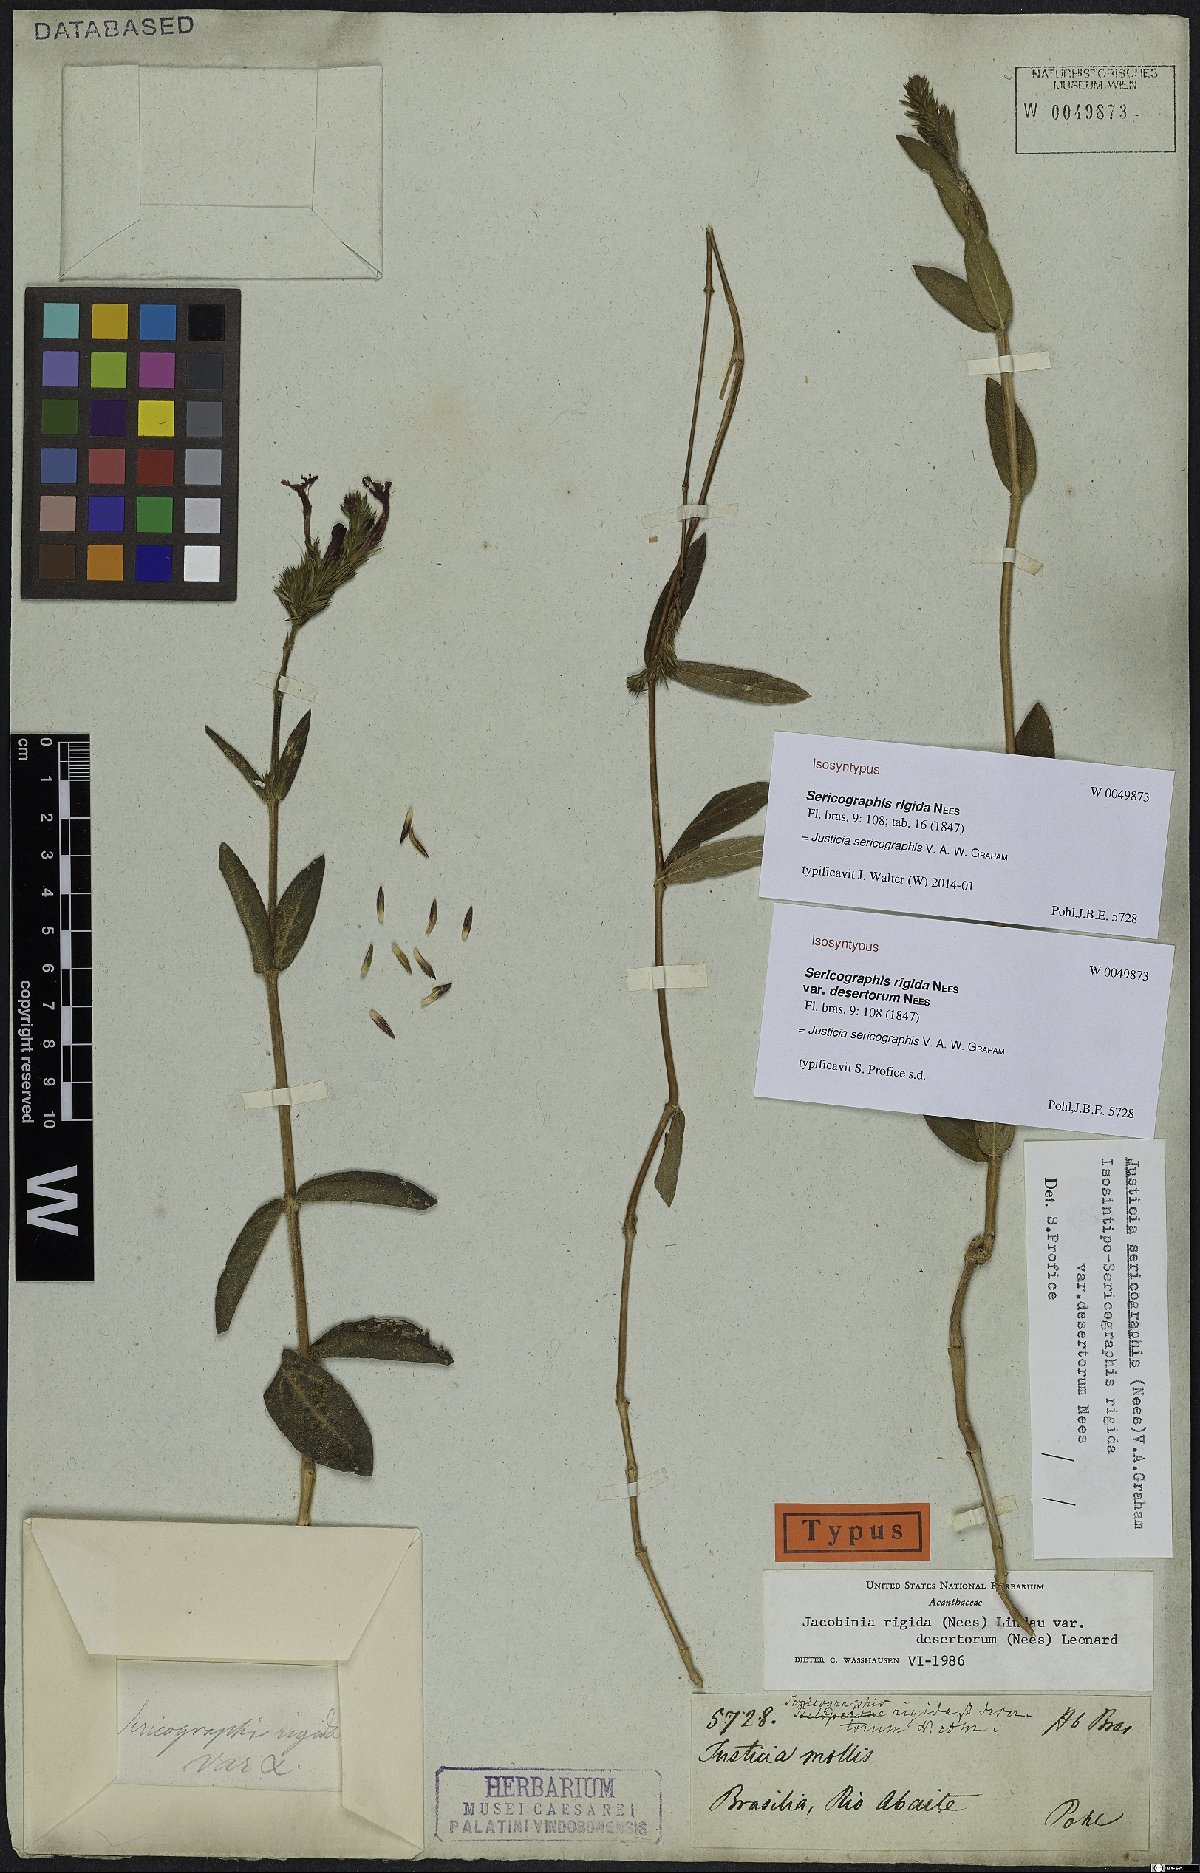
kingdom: Plantae
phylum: Tracheophyta
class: Magnoliopsida
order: Lamiales
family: Acanthaceae
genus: Dianthera
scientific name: Dianthera rigida
